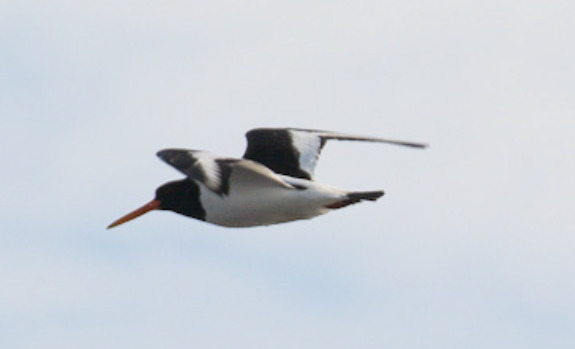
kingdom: Animalia
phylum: Chordata
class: Aves
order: Charadriiformes
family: Haematopodidae
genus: Haematopus
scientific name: Haematopus ostralegus
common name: Strandskade
